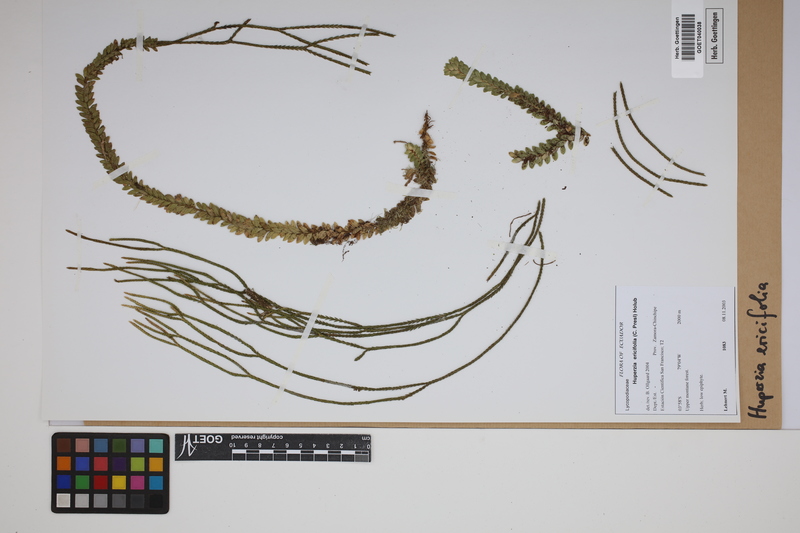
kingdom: Plantae
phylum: Tracheophyta
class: Lycopodiopsida
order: Lycopodiales
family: Lycopodiaceae
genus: Phlegmariurus
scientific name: Phlegmariurus ericifolius
